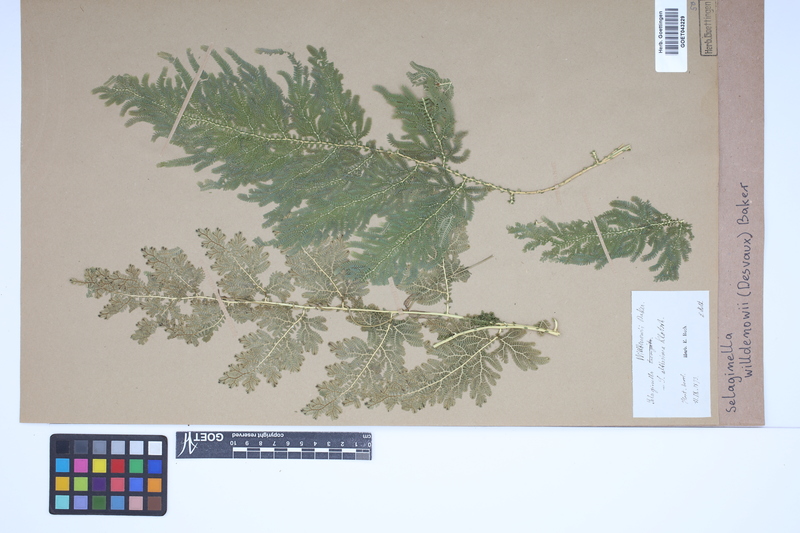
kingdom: Plantae
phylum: Tracheophyta
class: Lycopodiopsida
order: Selaginellales
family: Selaginellaceae
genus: Selaginella
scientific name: Selaginella willdenowii
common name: Willdenow's spikemoss
